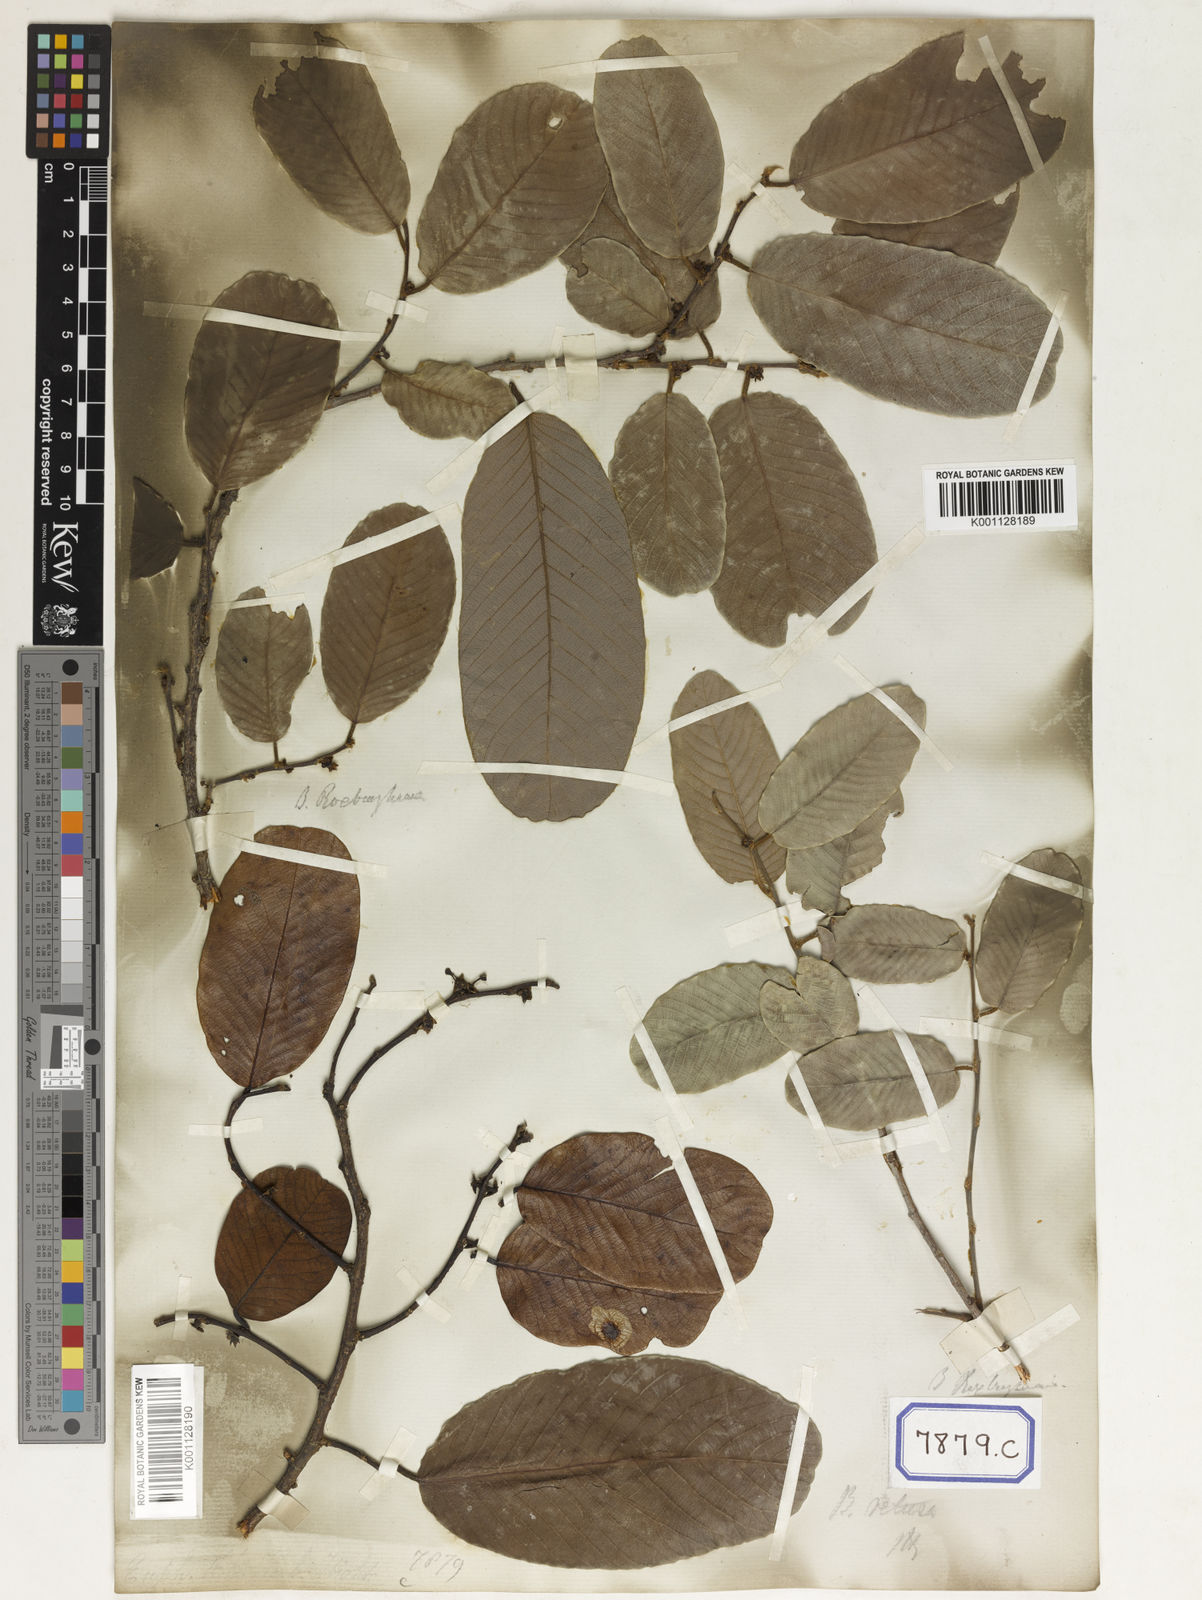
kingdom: Plantae
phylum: Tracheophyta
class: Magnoliopsida
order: Malpighiales
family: Phyllanthaceae
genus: Bridelia
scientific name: Bridelia montana
